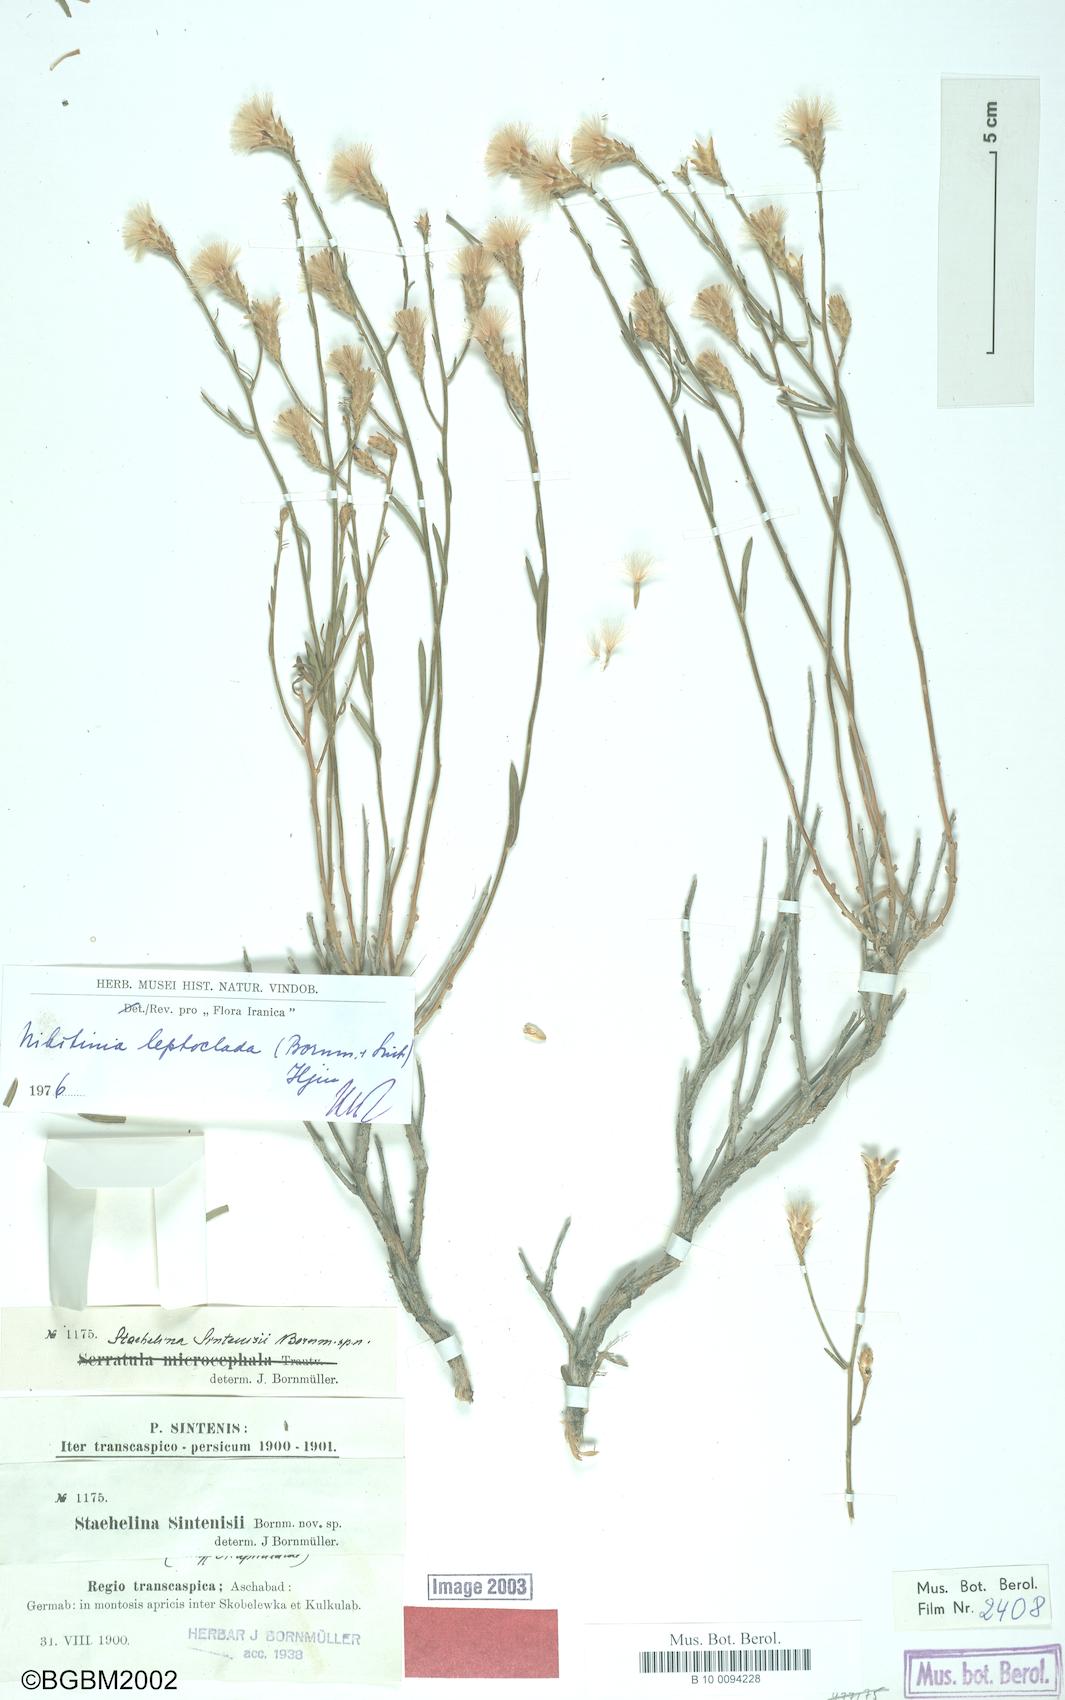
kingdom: Plantae
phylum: Tracheophyta
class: Magnoliopsida
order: Asterales
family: Asteraceae
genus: Galatella
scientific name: Galatella grimmii
